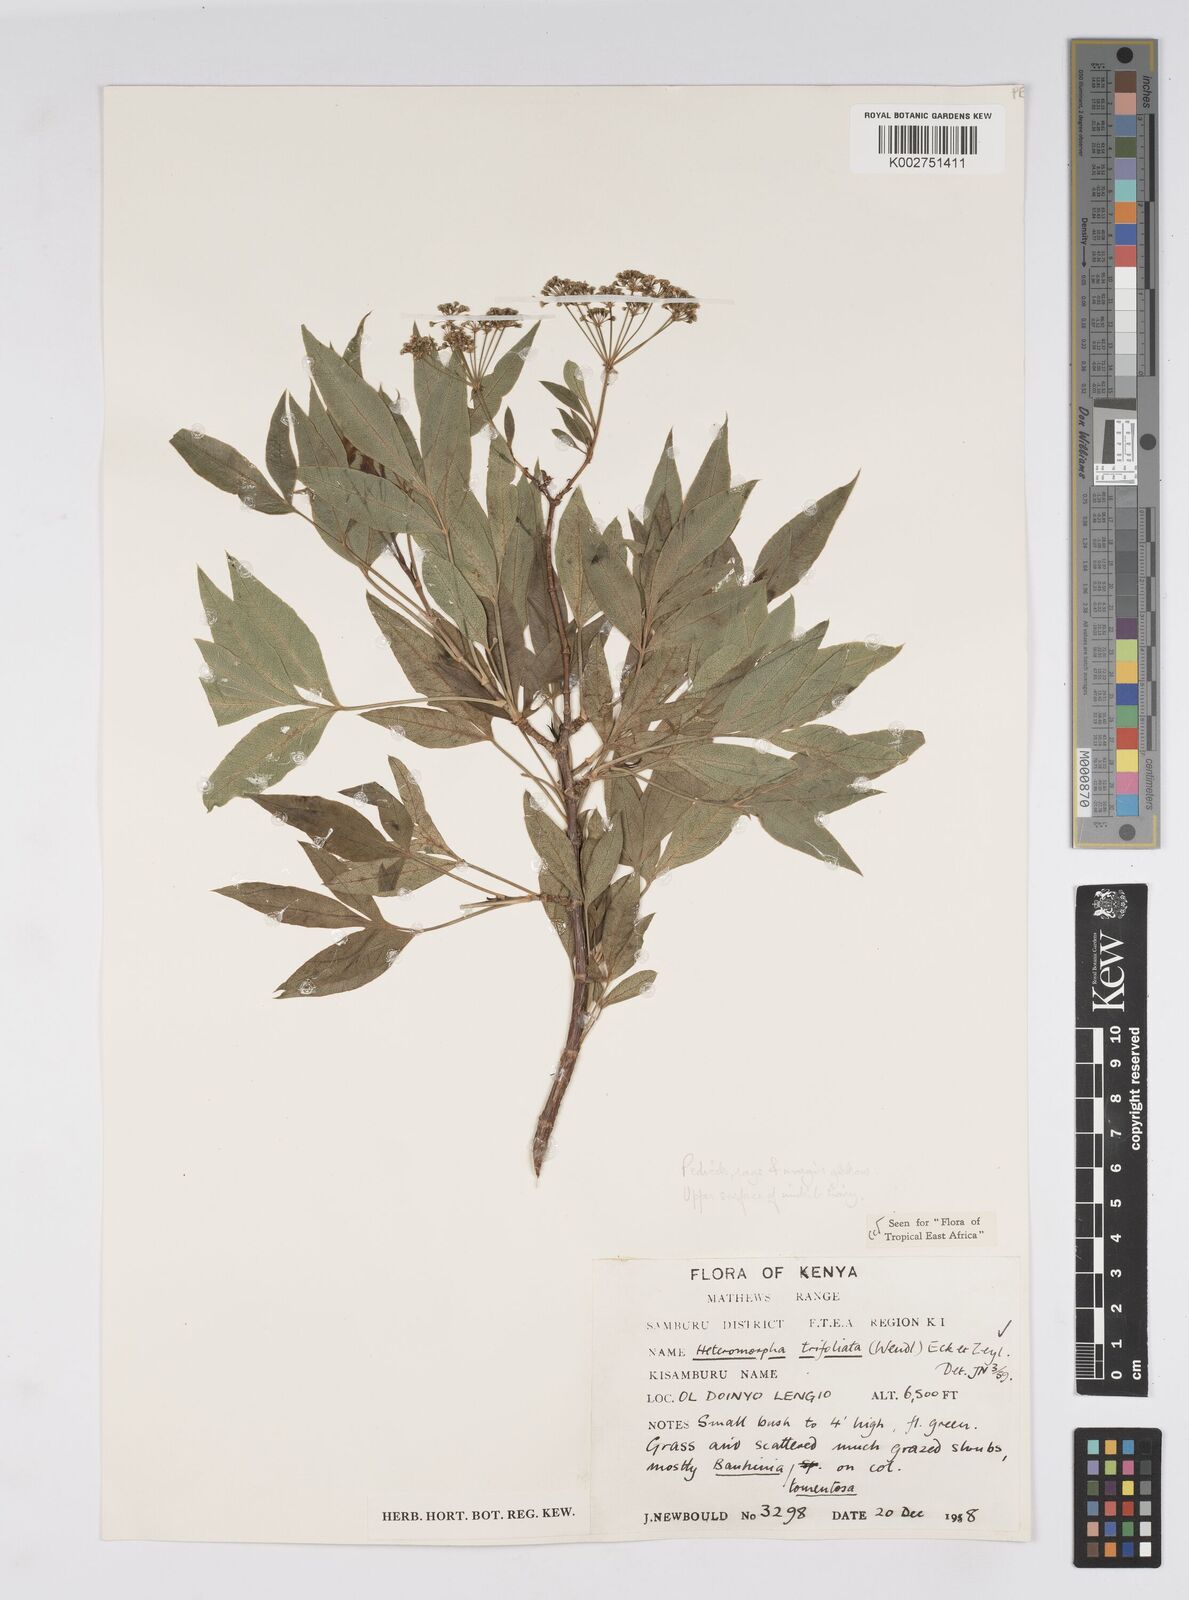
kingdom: Plantae
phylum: Tracheophyta
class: Magnoliopsida
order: Apiales
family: Apiaceae
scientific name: Apiaceae
